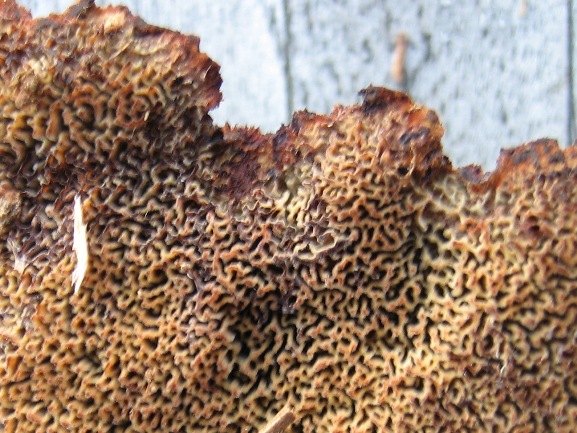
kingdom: Fungi
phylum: Basidiomycota
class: Agaricomycetes
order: Polyporales
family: Laetiporaceae
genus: Phaeolus
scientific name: Phaeolus schweinitzii
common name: brunporesvamp
